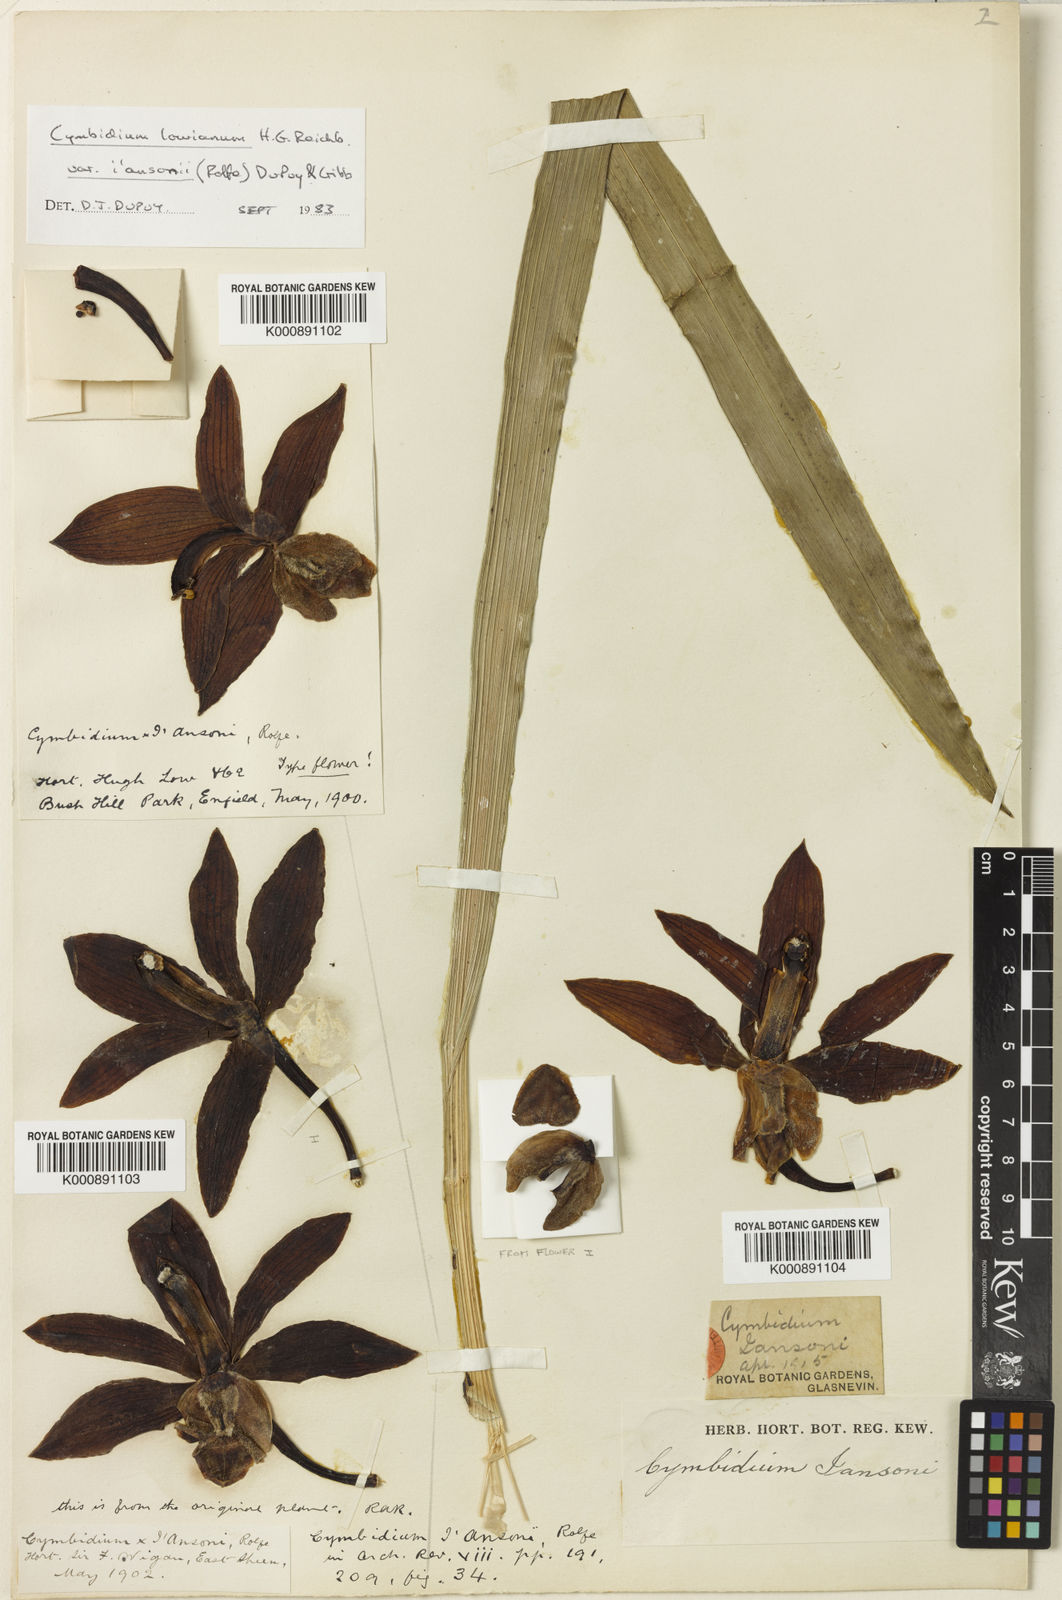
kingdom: Plantae
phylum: Tracheophyta
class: Liliopsida
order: Asparagales
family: Orchidaceae
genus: Cymbidium
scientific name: Cymbidium lowianum
